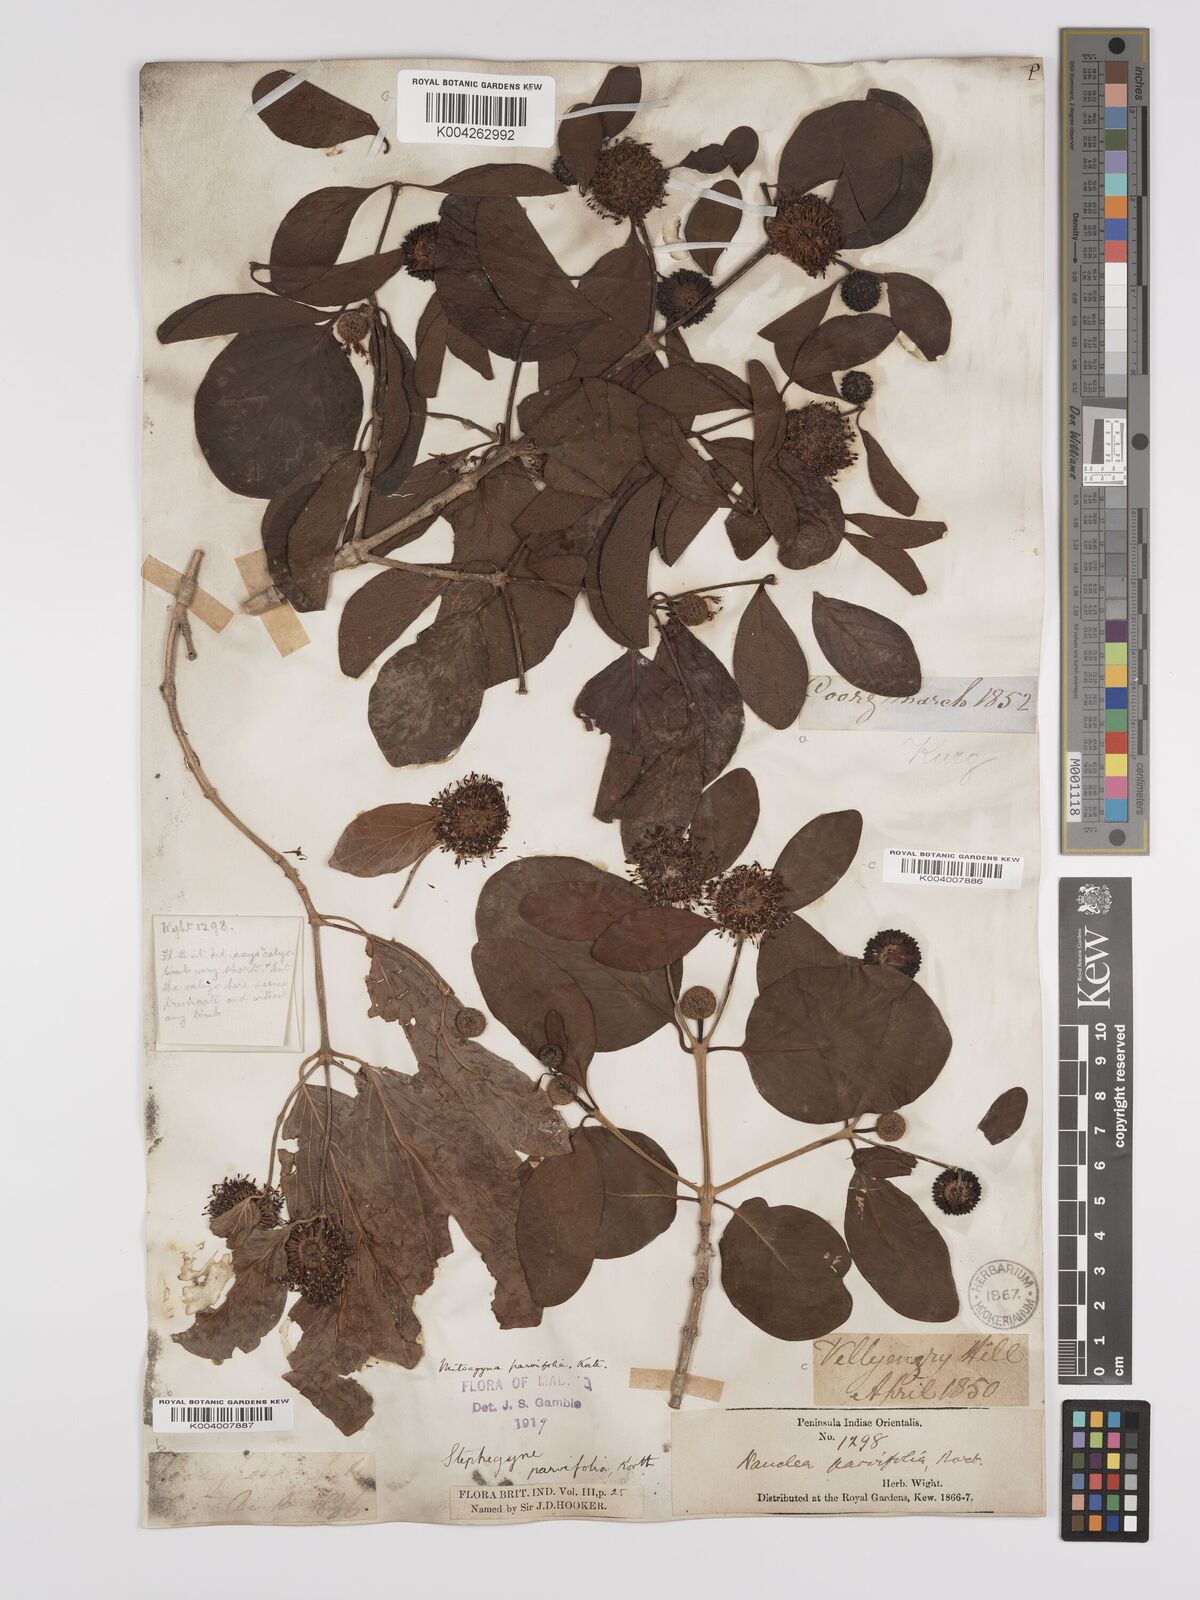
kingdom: Plantae
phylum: Tracheophyta
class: Magnoliopsida
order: Gentianales
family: Rubiaceae
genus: Mitragyna
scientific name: Mitragyna parvifolia
